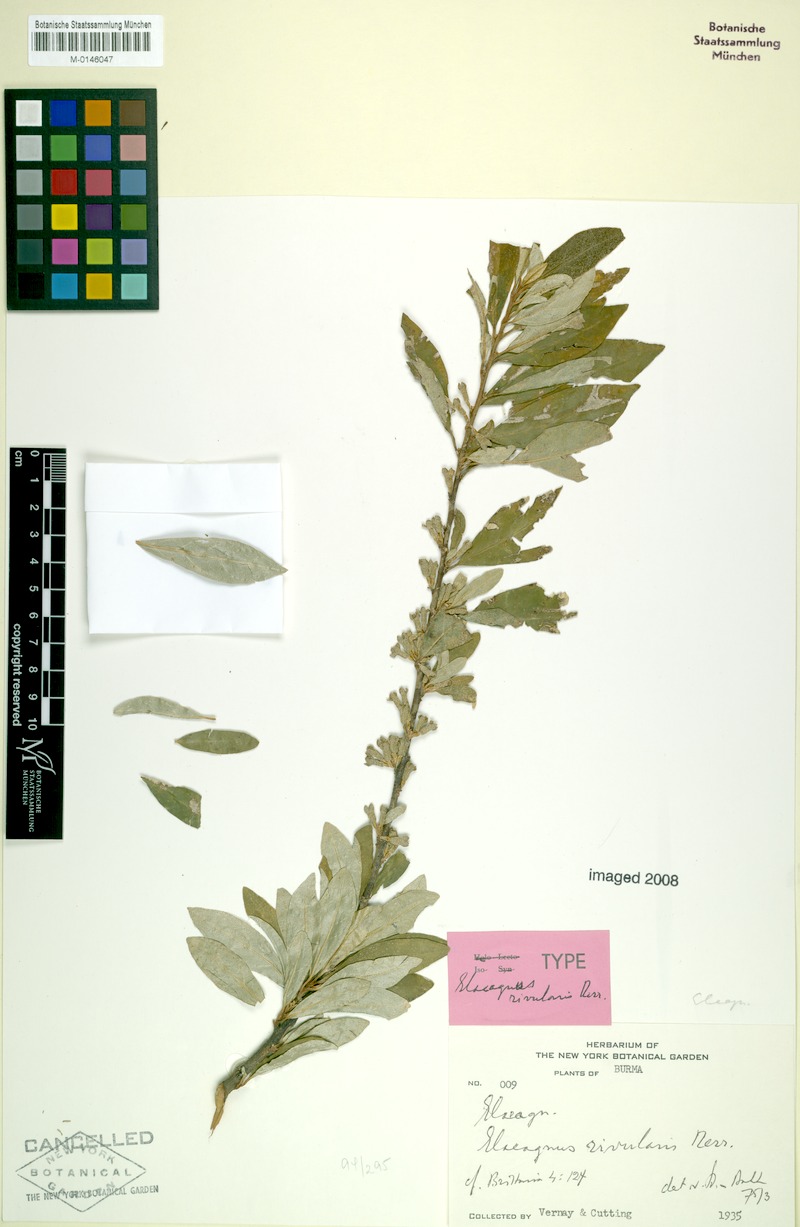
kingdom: Plantae
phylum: Tracheophyta
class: Magnoliopsida
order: Rosales
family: Elaeagnaceae
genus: Elaeagnus
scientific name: Elaeagnus rivularis
